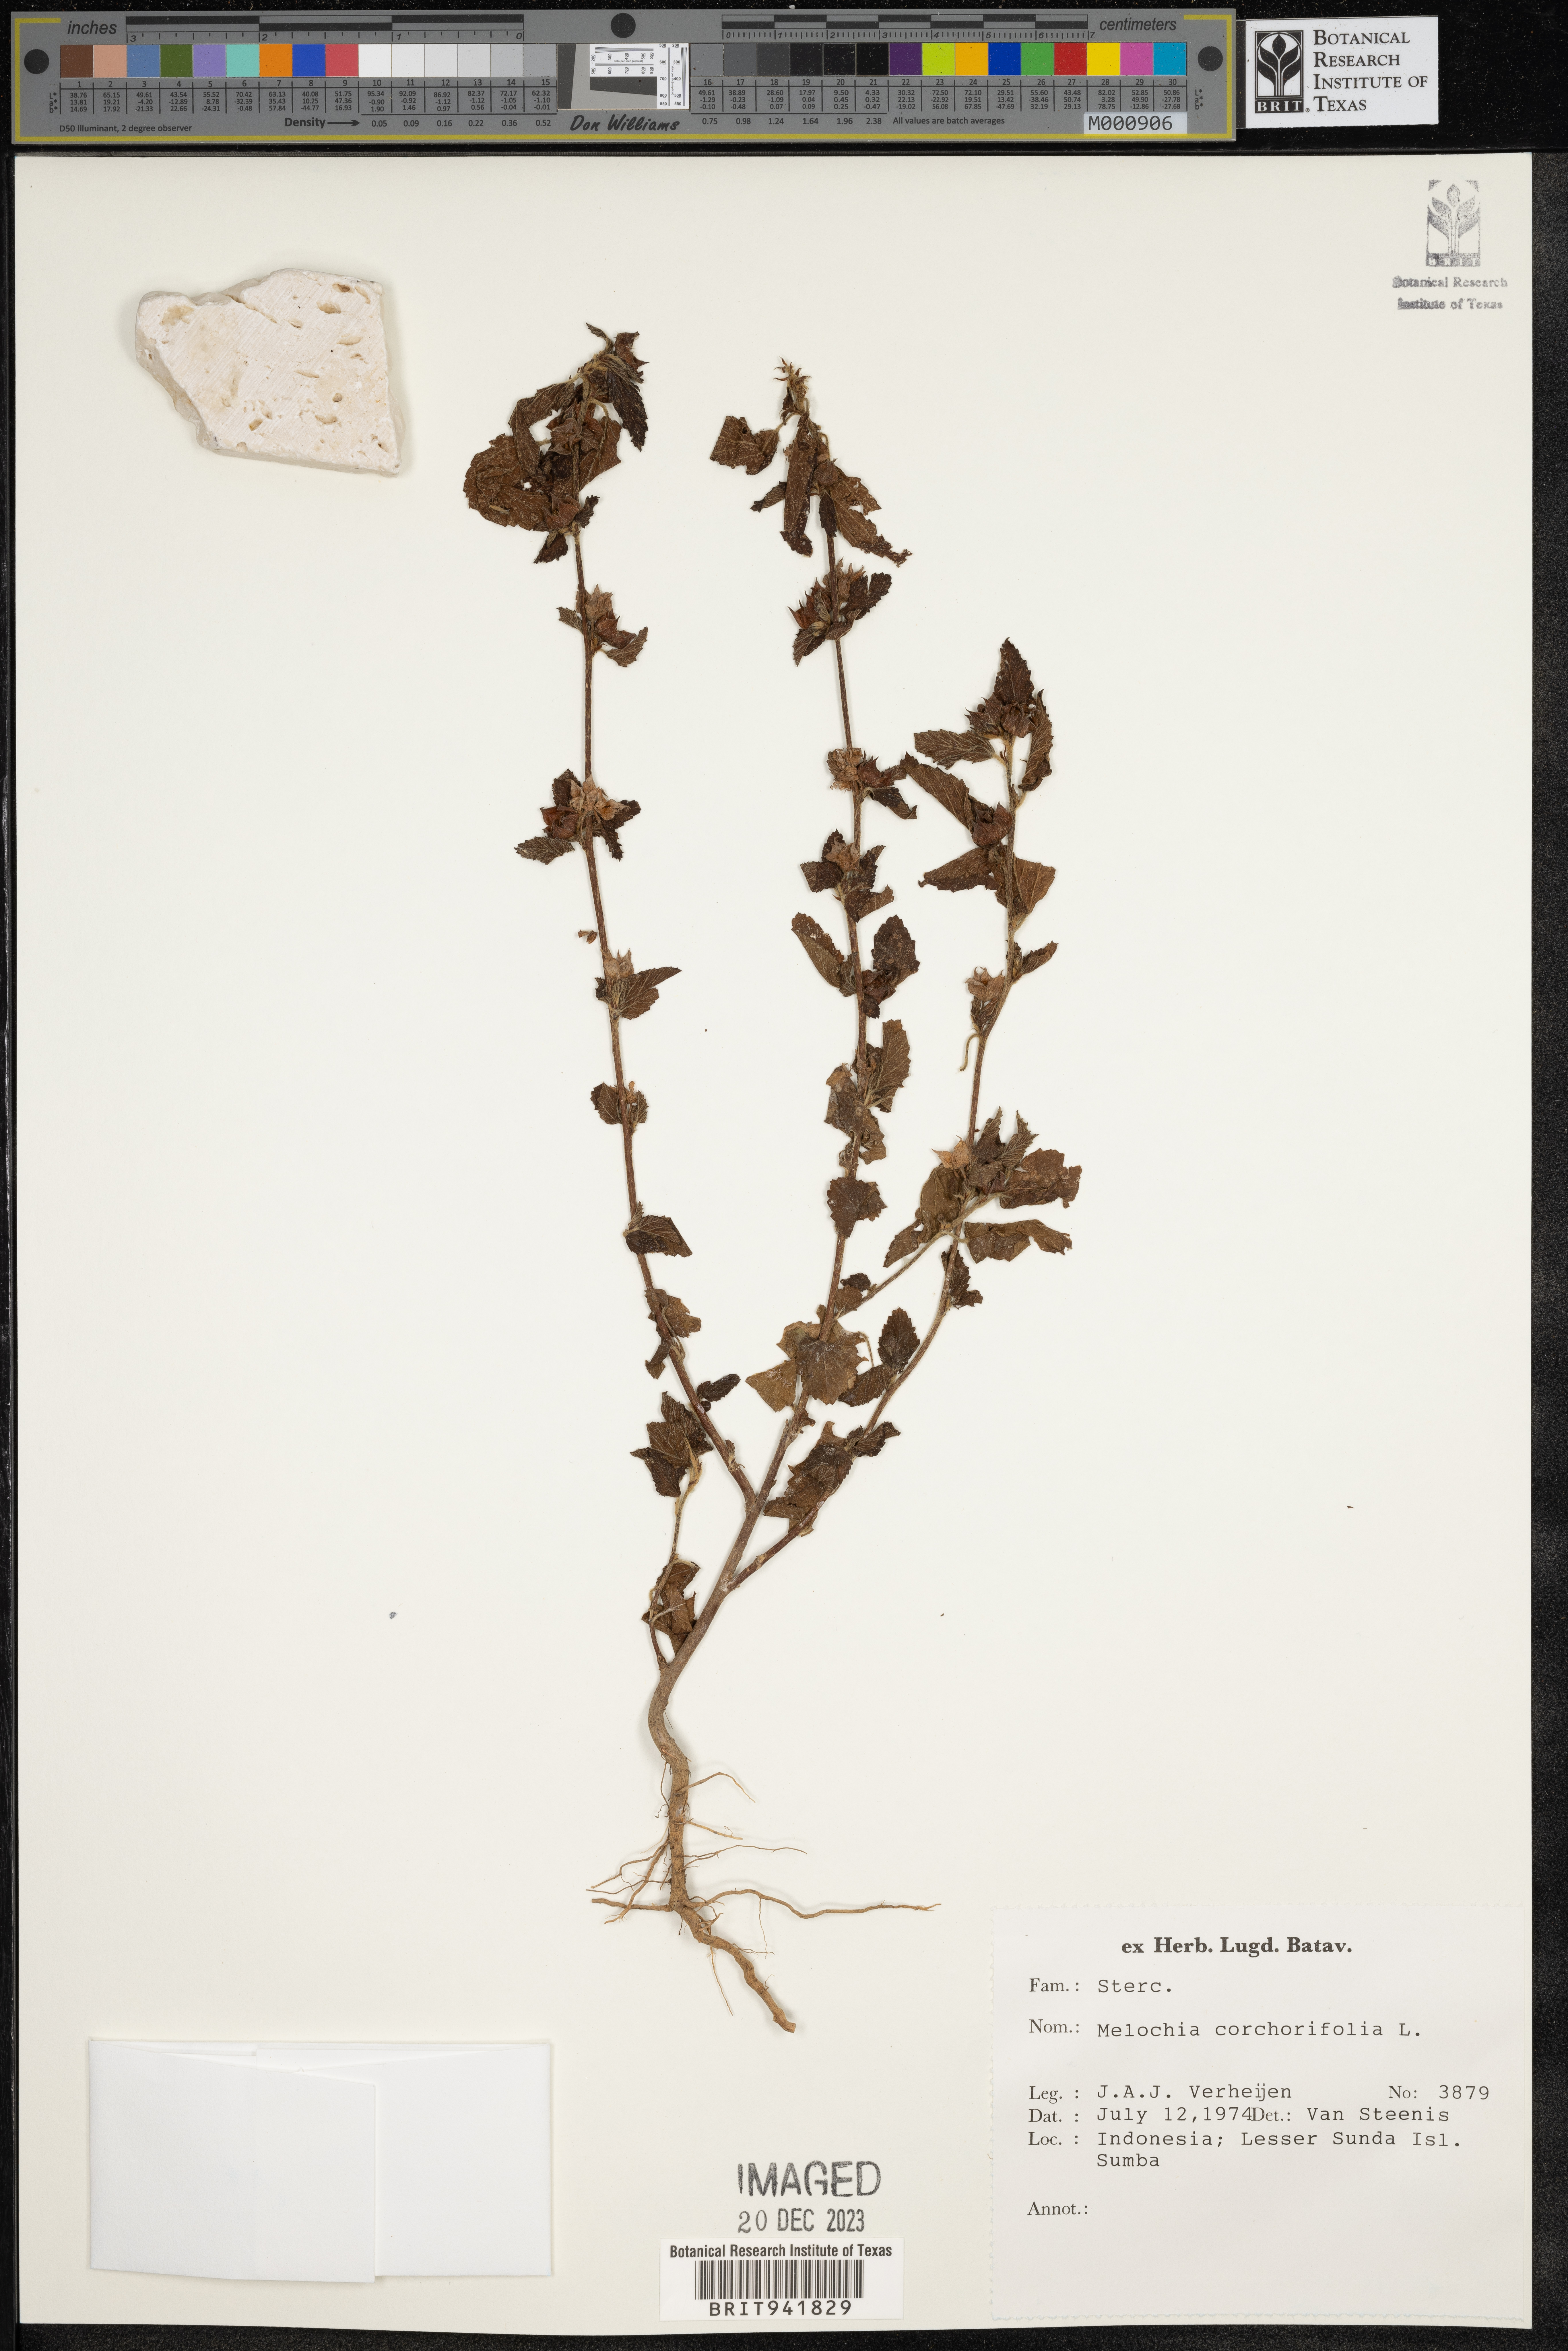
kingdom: Plantae
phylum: Tracheophyta
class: Magnoliopsida
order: Malvales
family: Malvaceae
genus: Melochia
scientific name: Melochia
